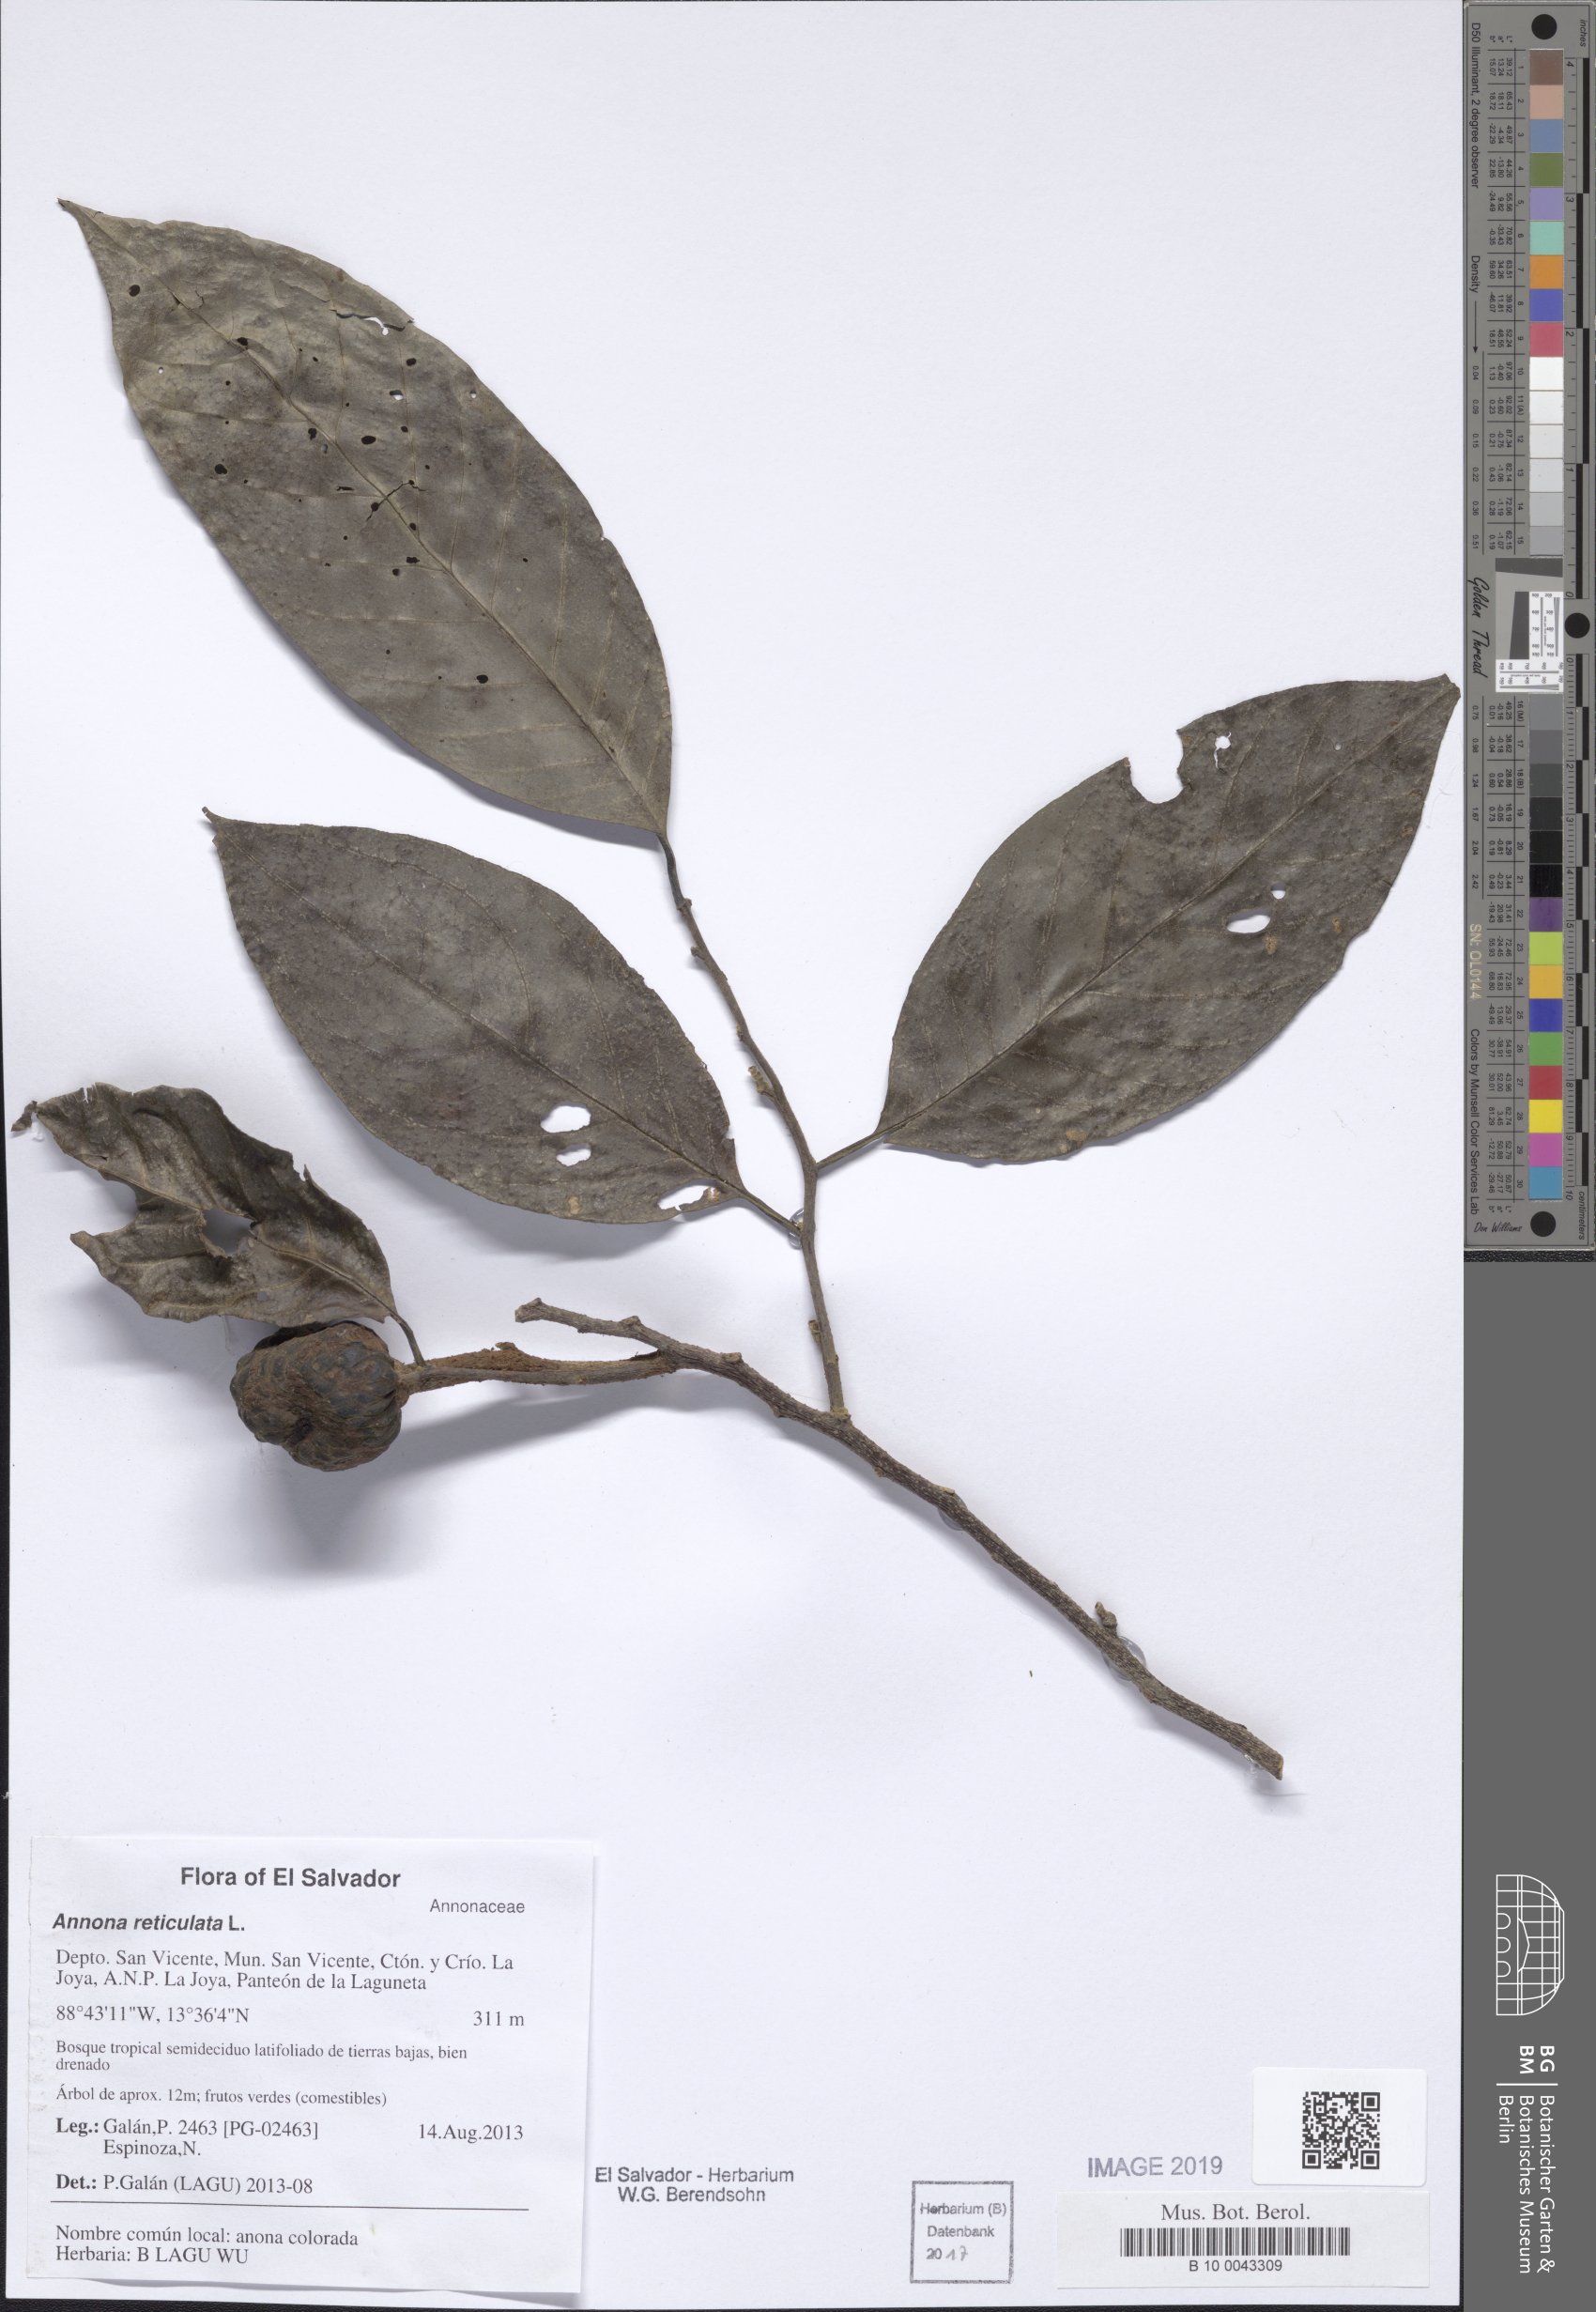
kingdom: Plantae
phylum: Tracheophyta
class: Magnoliopsida
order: Magnoliales
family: Annonaceae
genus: Annona
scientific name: Annona reticulata
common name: Custard apple
